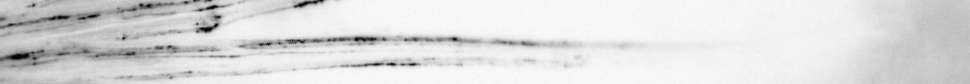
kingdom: Animalia
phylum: Chordata
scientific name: Chordata
